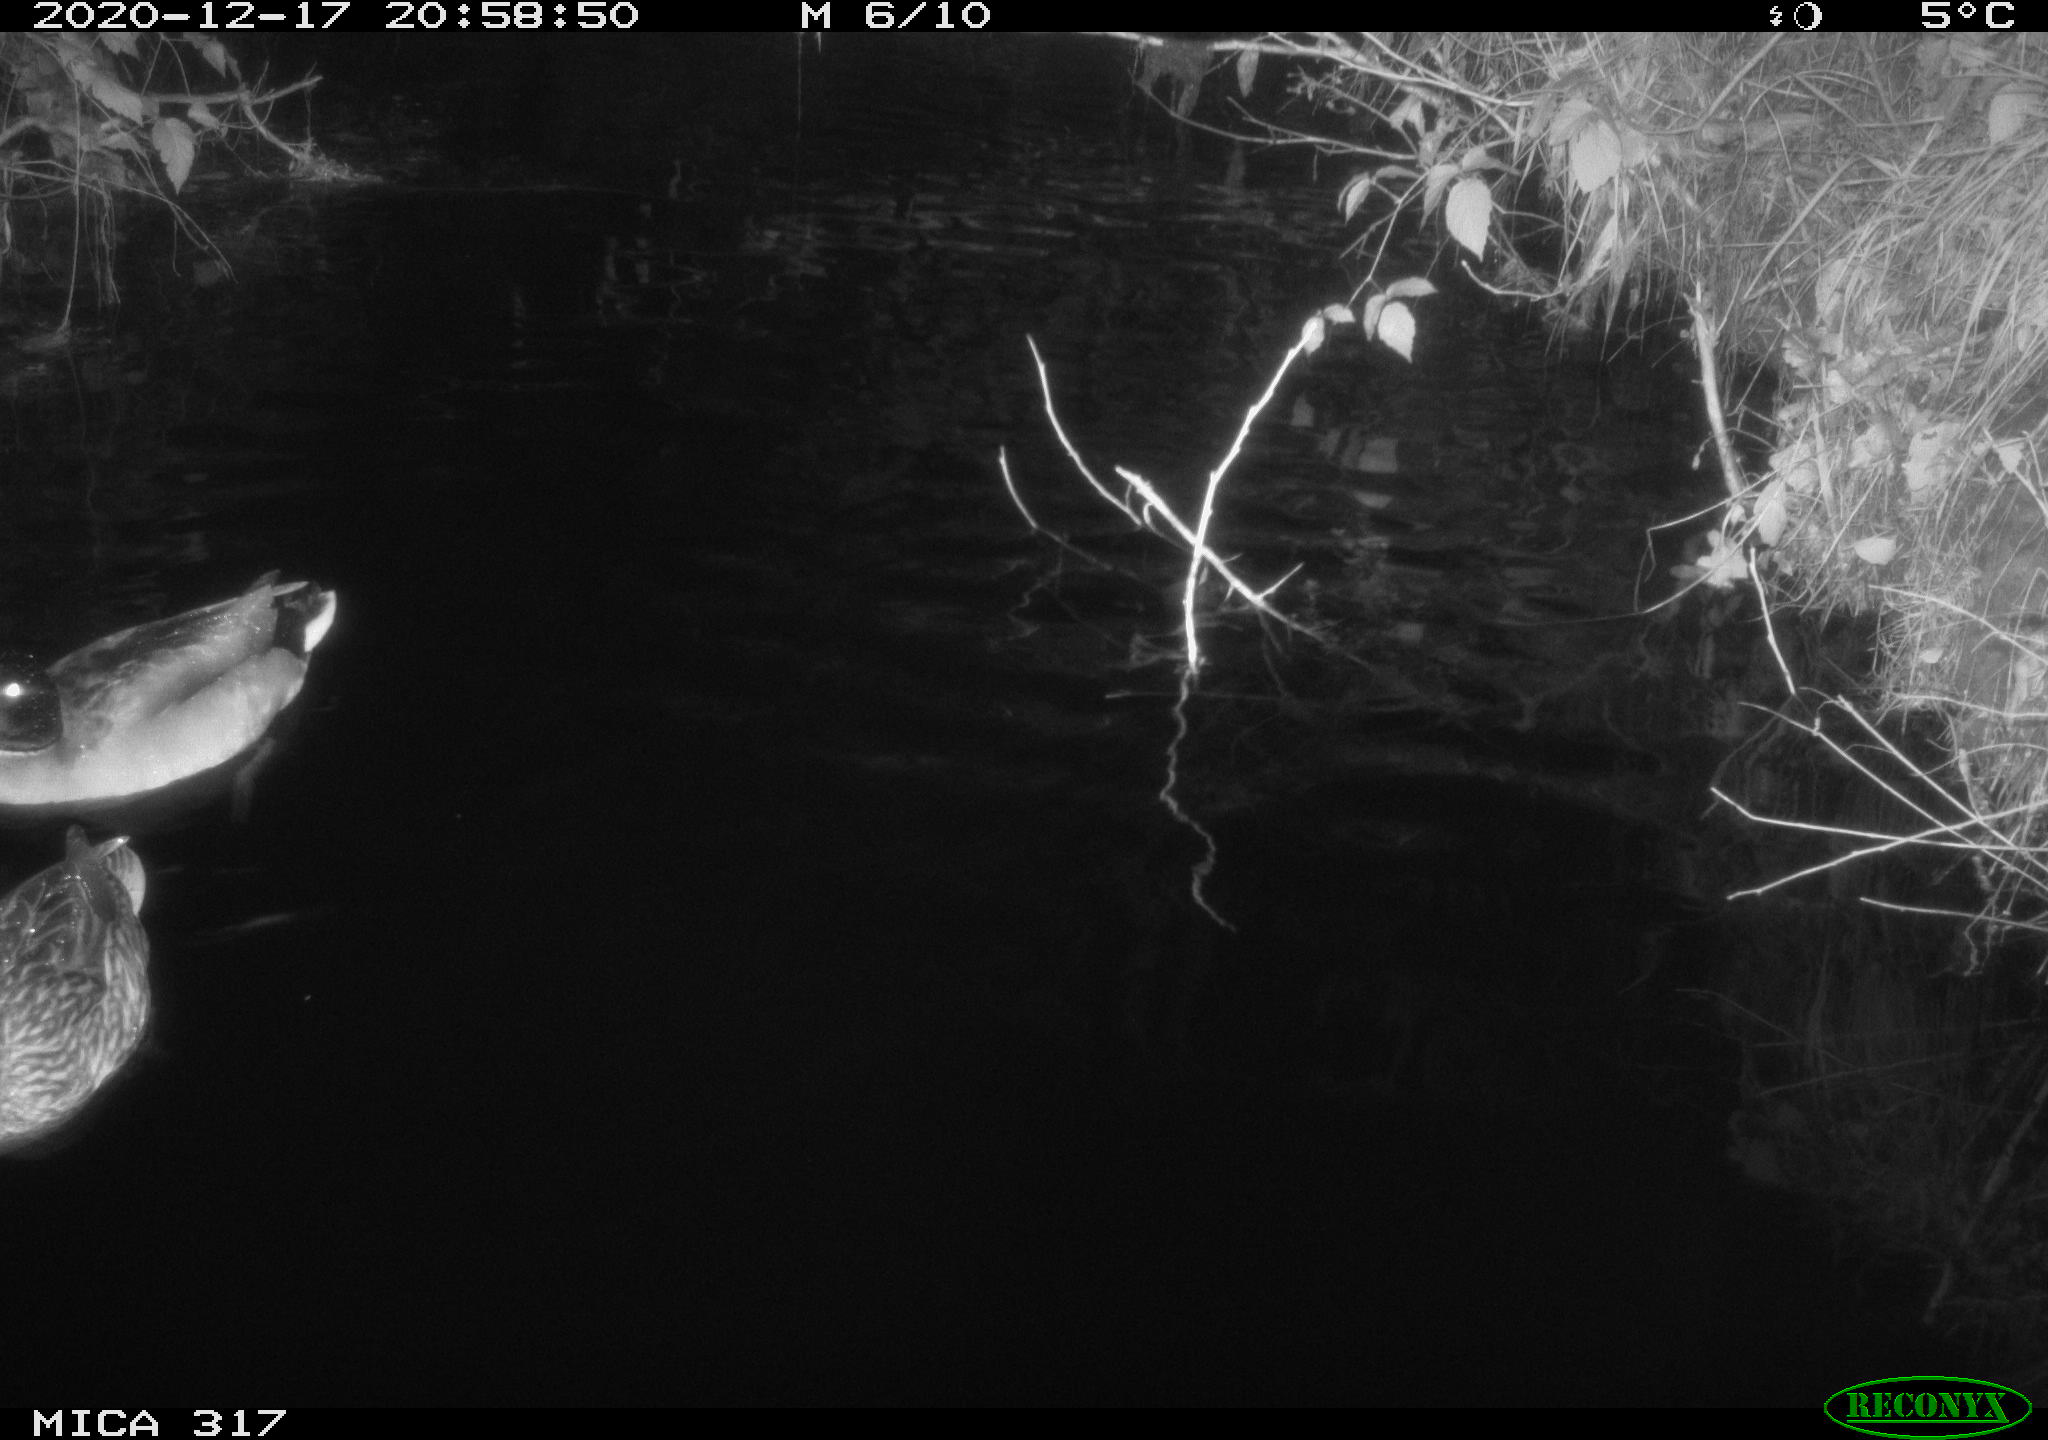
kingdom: Animalia
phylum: Chordata
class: Aves
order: Anseriformes
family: Anatidae
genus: Anas
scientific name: Anas platyrhynchos
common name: Mallard
